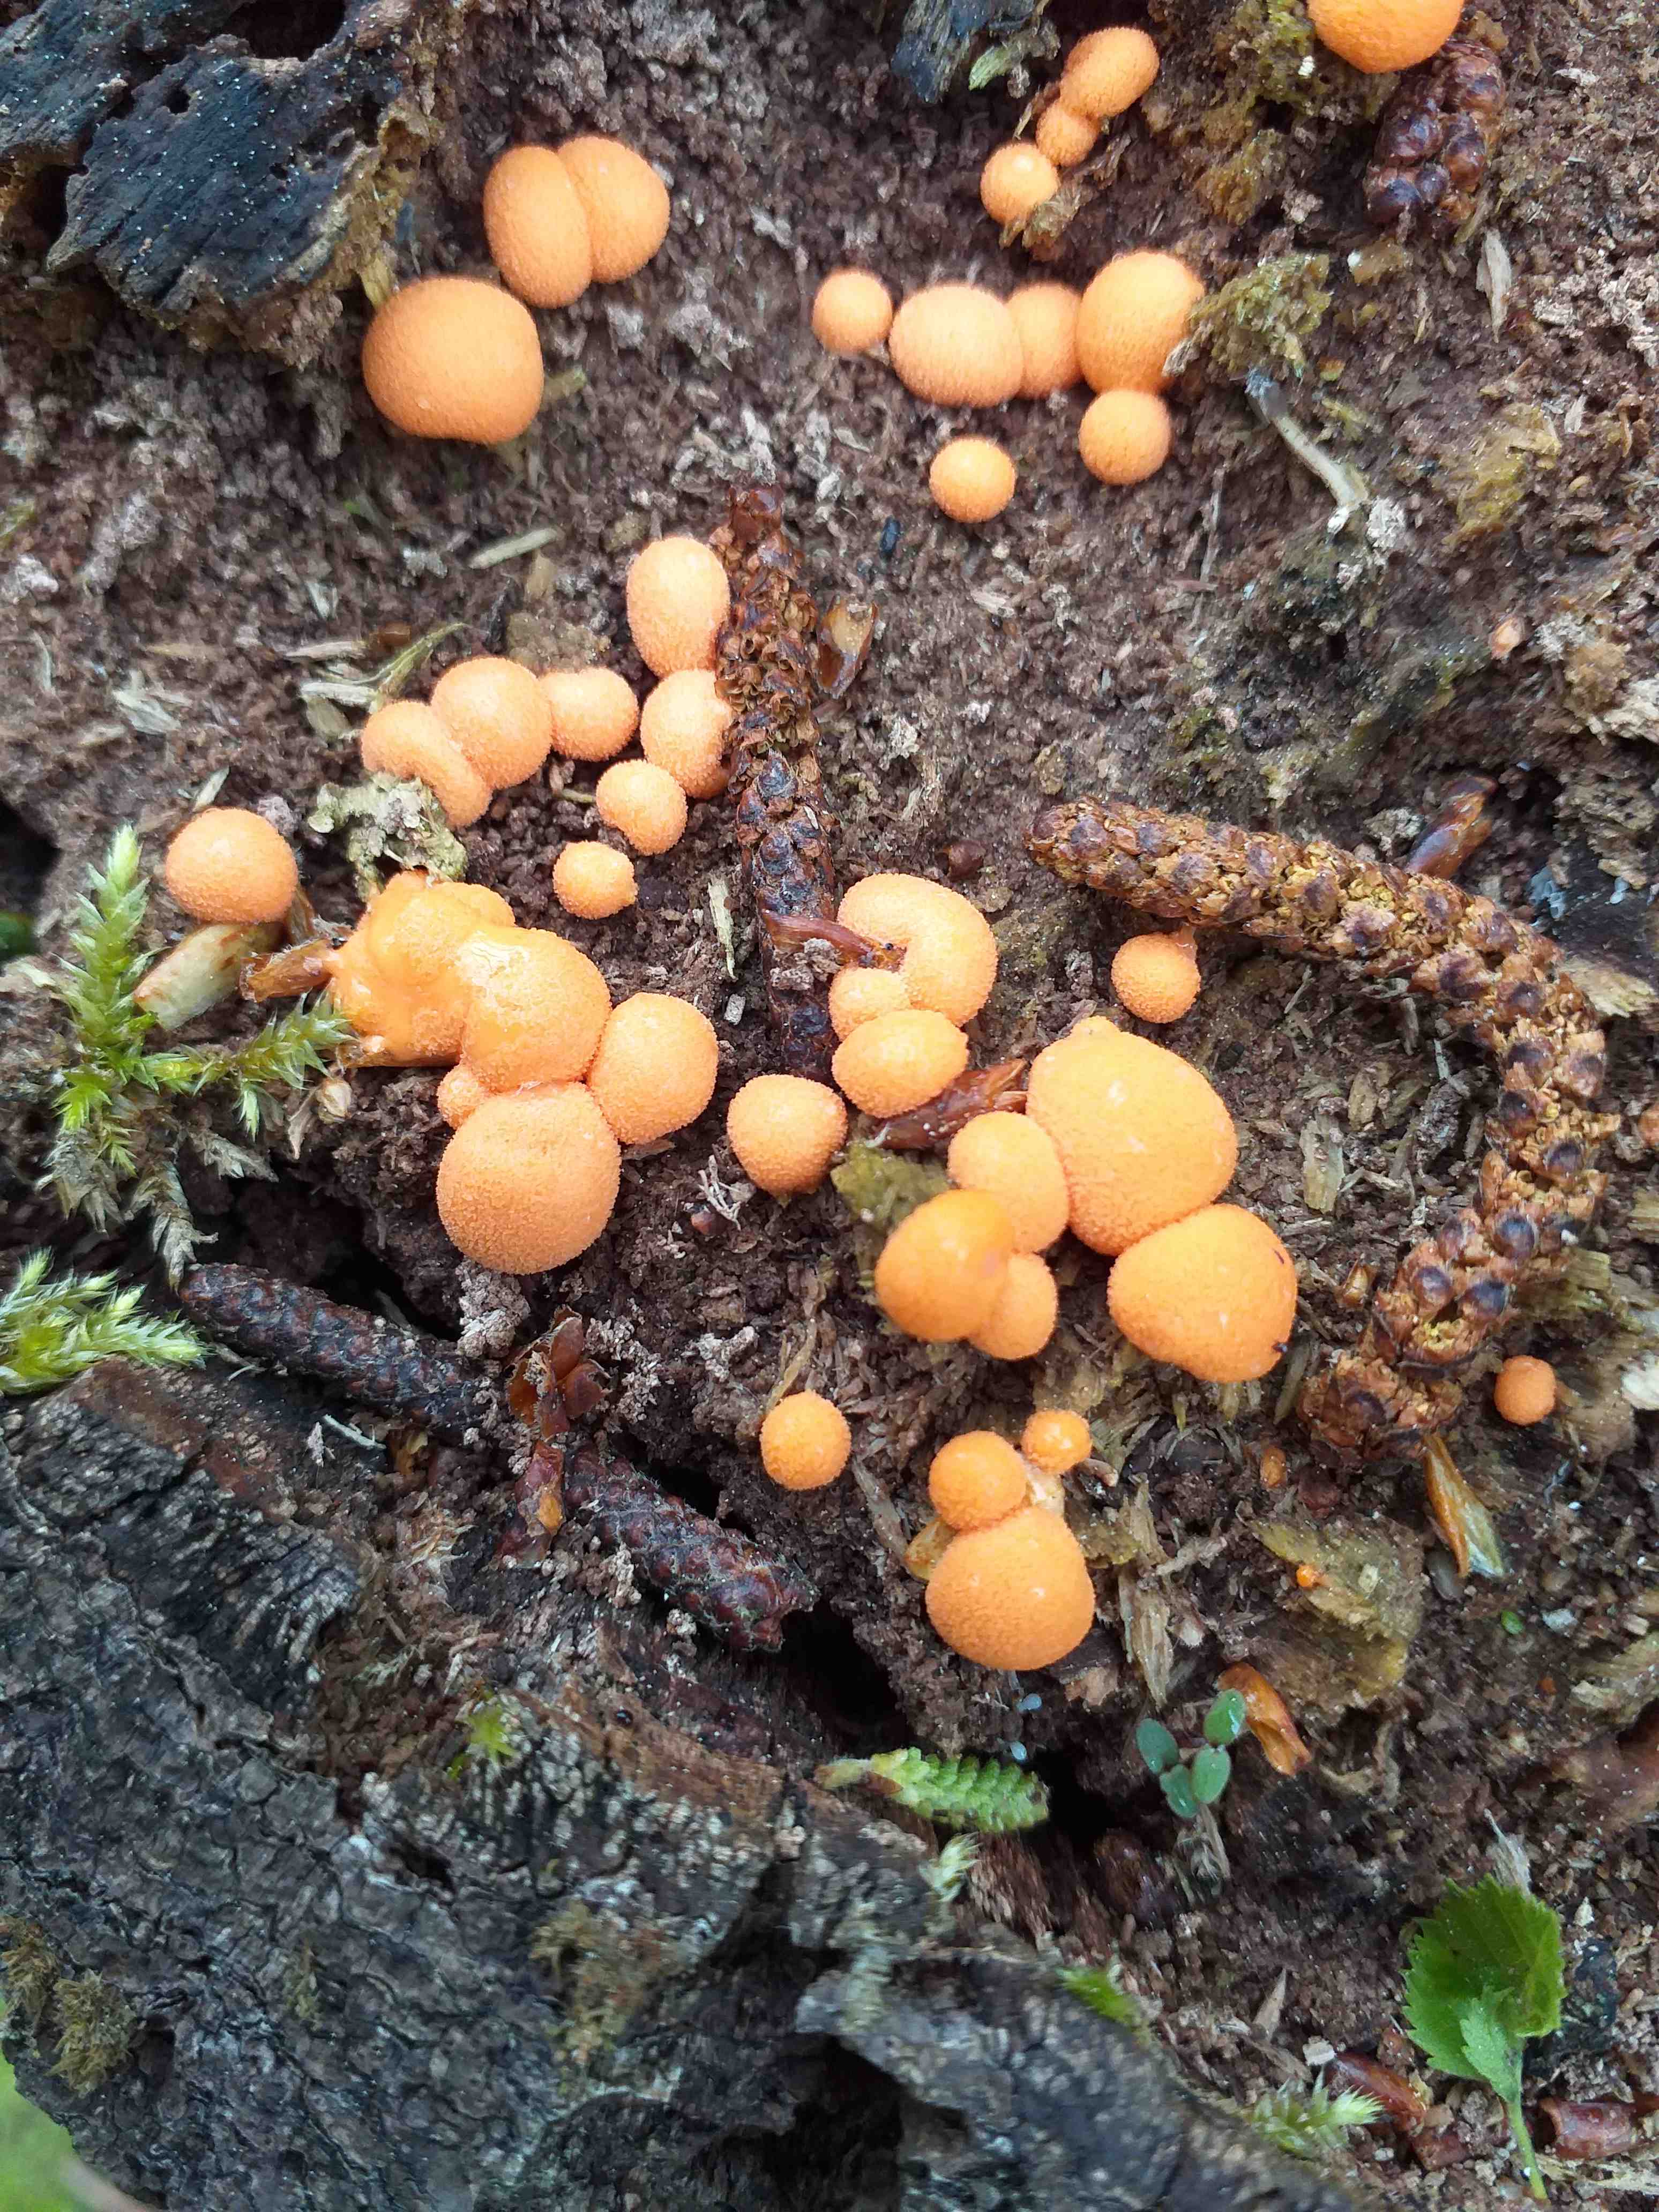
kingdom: Protozoa
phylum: Mycetozoa
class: Myxomycetes
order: Cribrariales
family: Tubiferaceae
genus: Lycogala
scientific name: Lycogala epidendrum
